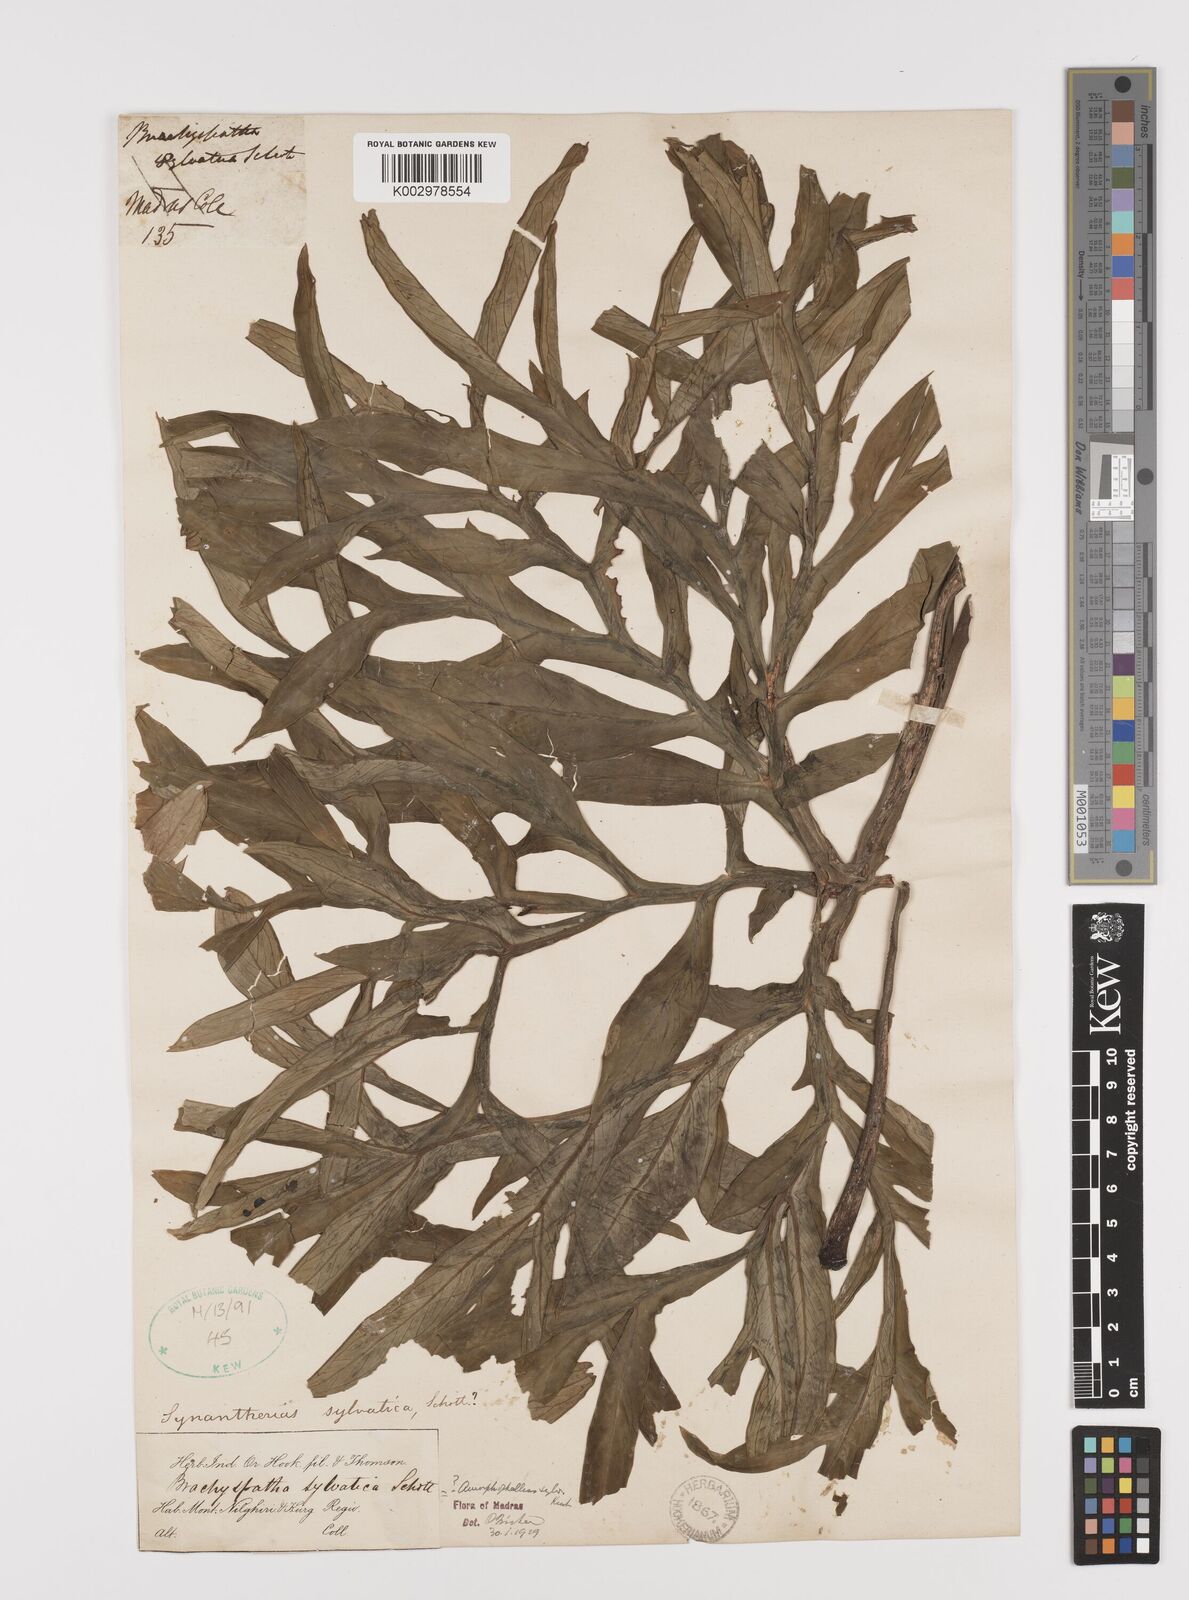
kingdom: Plantae
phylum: Tracheophyta
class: Liliopsida
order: Alismatales
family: Araceae
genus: Amorphophallus
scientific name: Amorphophallus sylvaticus
